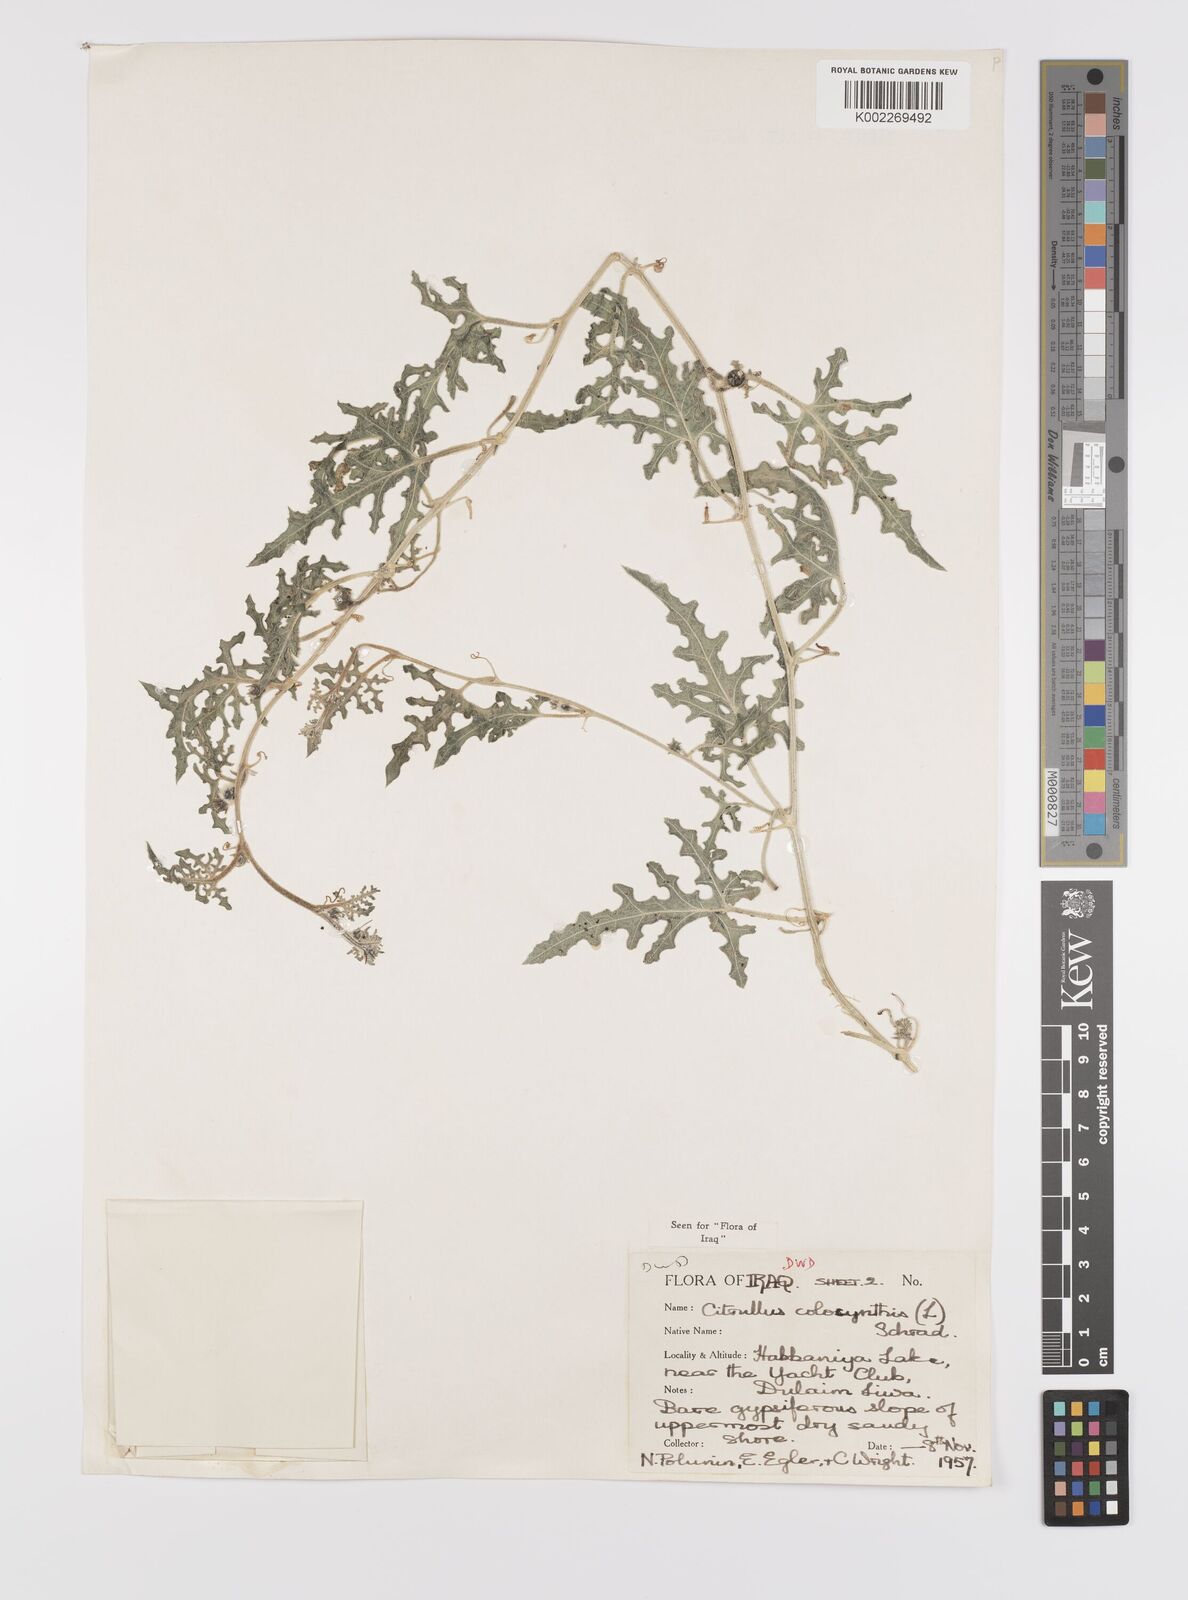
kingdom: Plantae
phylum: Tracheophyta
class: Magnoliopsida
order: Cucurbitales
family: Cucurbitaceae
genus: Citrullus
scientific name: Citrullus colocynthis
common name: Colocynth
